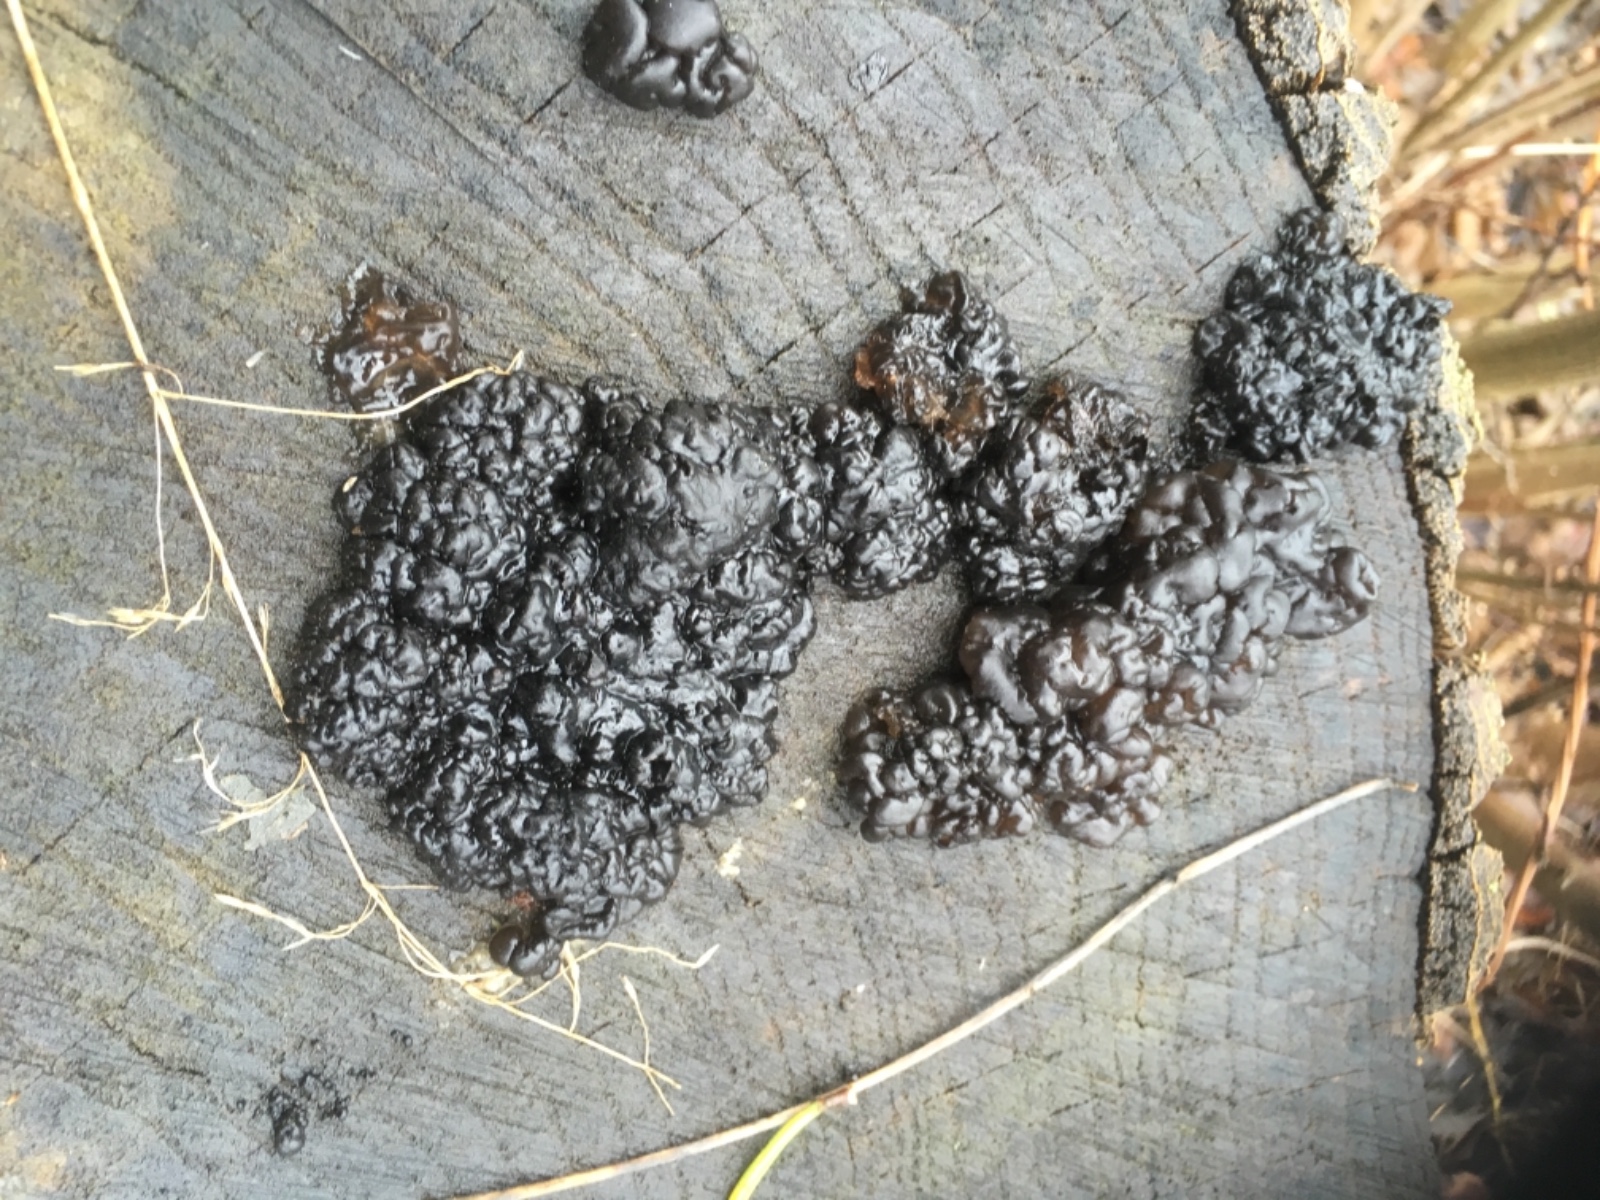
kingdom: Fungi
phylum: Basidiomycota
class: Agaricomycetes
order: Auriculariales
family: Auriculariaceae
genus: Exidia
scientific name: Exidia nigricans
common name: almindelig bævretop
